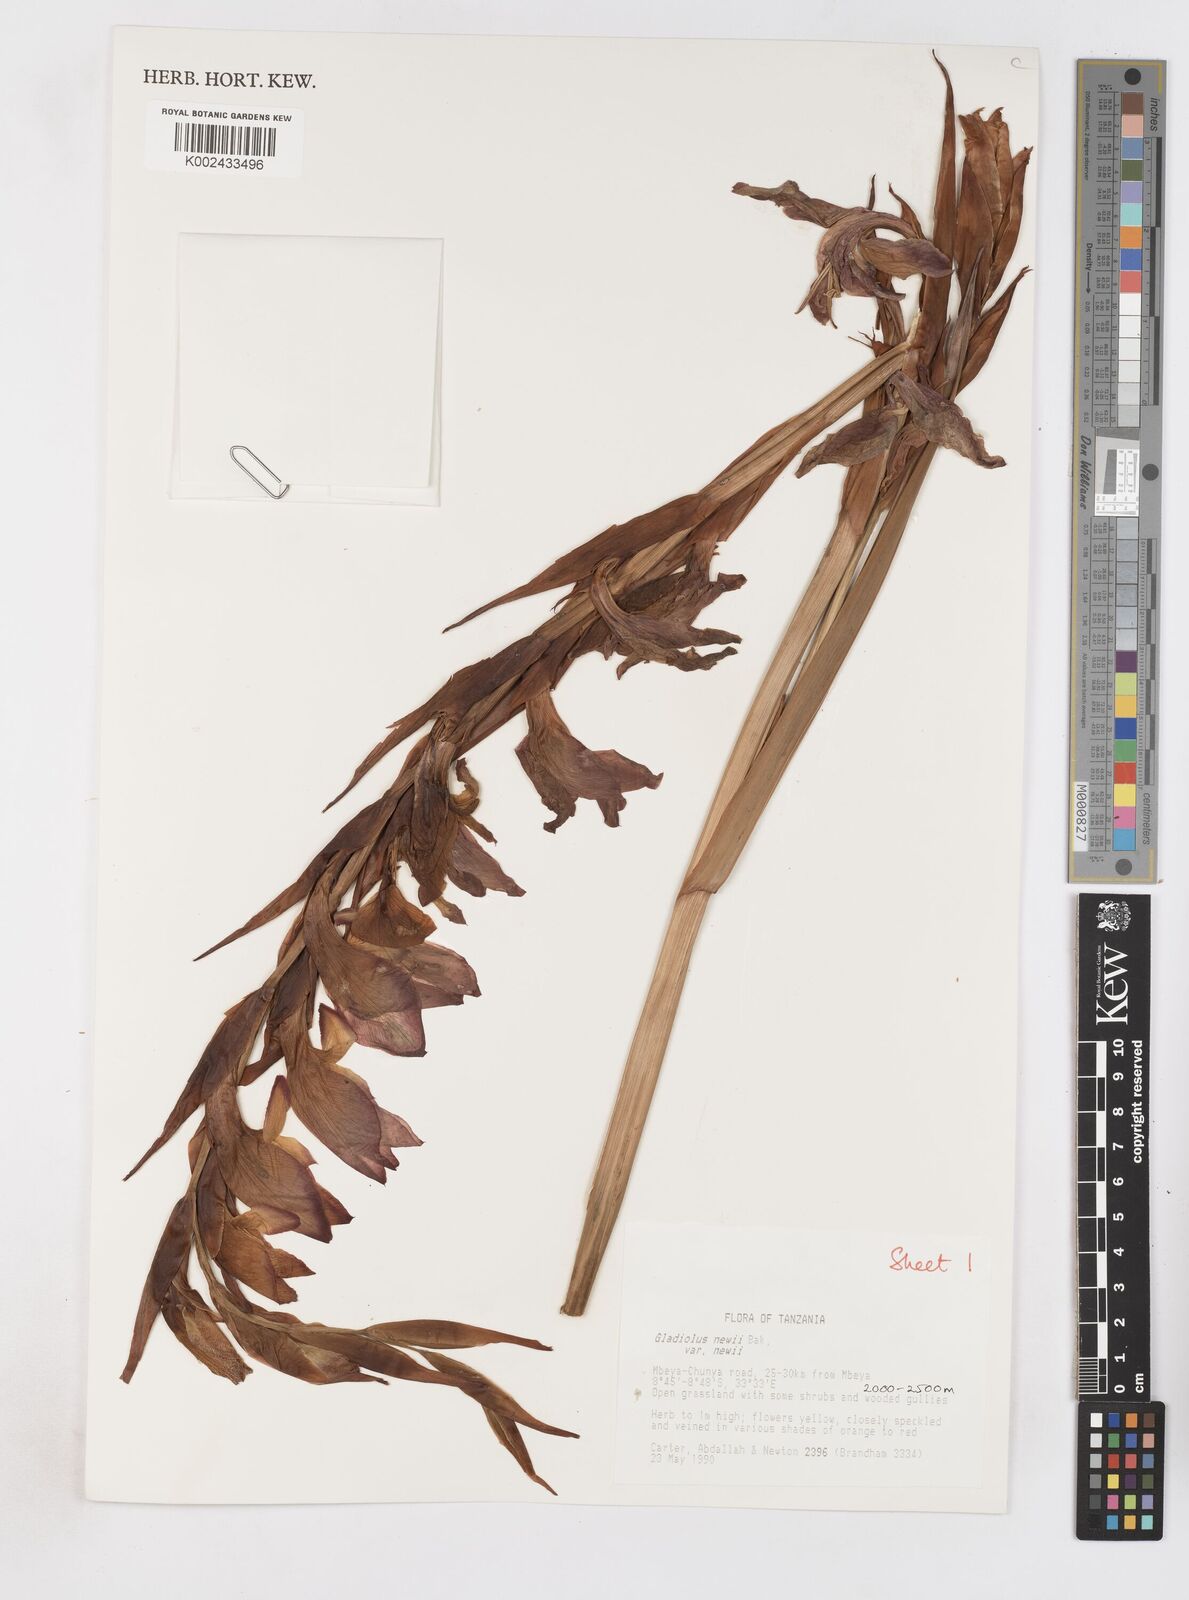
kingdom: Plantae
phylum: Tracheophyta
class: Liliopsida
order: Asparagales
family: Iridaceae
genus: Gladiolus
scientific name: Gladiolus dalenii
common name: Cornflag
